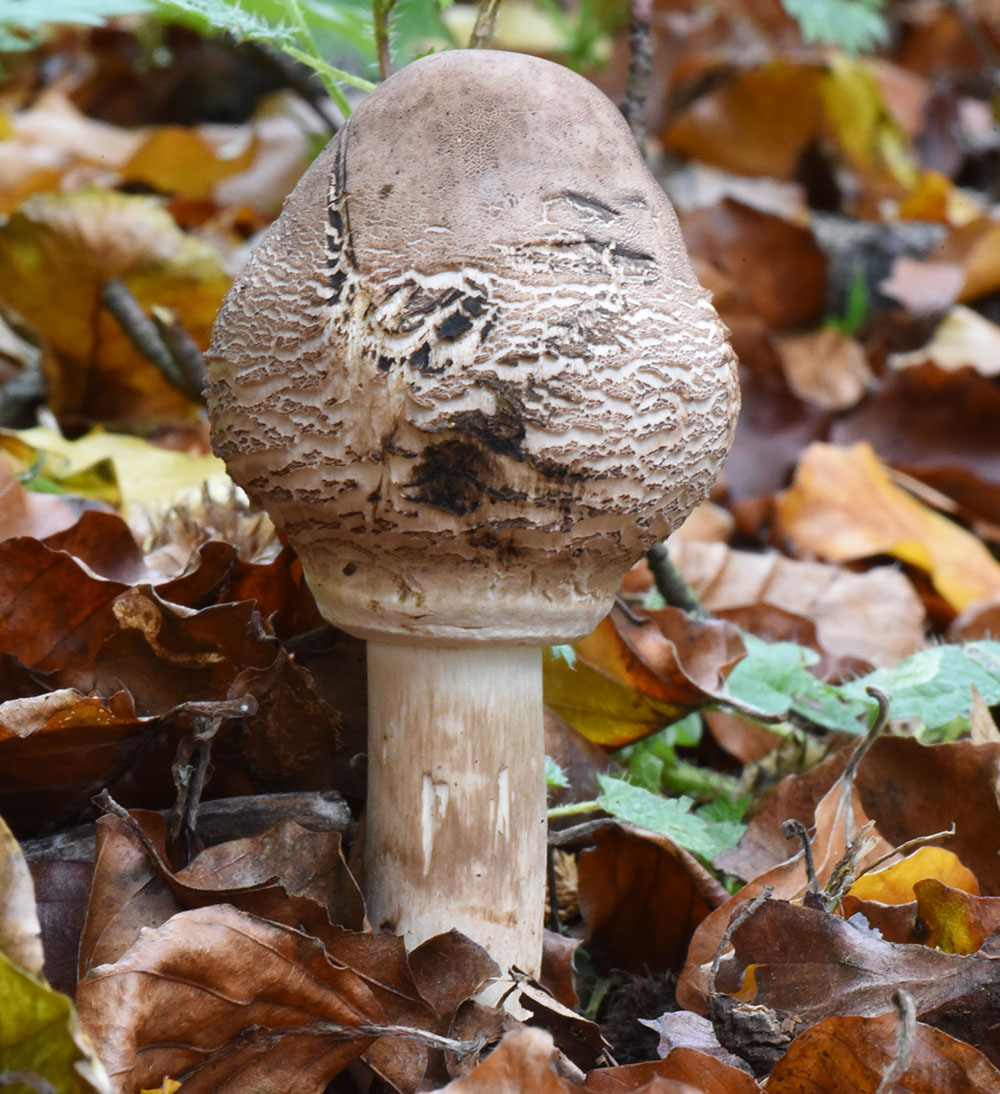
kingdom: Fungi
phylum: Basidiomycota
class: Agaricomycetes
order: Agaricales
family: Agaricaceae
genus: Chlorophyllum
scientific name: Chlorophyllum rhacodes
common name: Shaggy parasol
